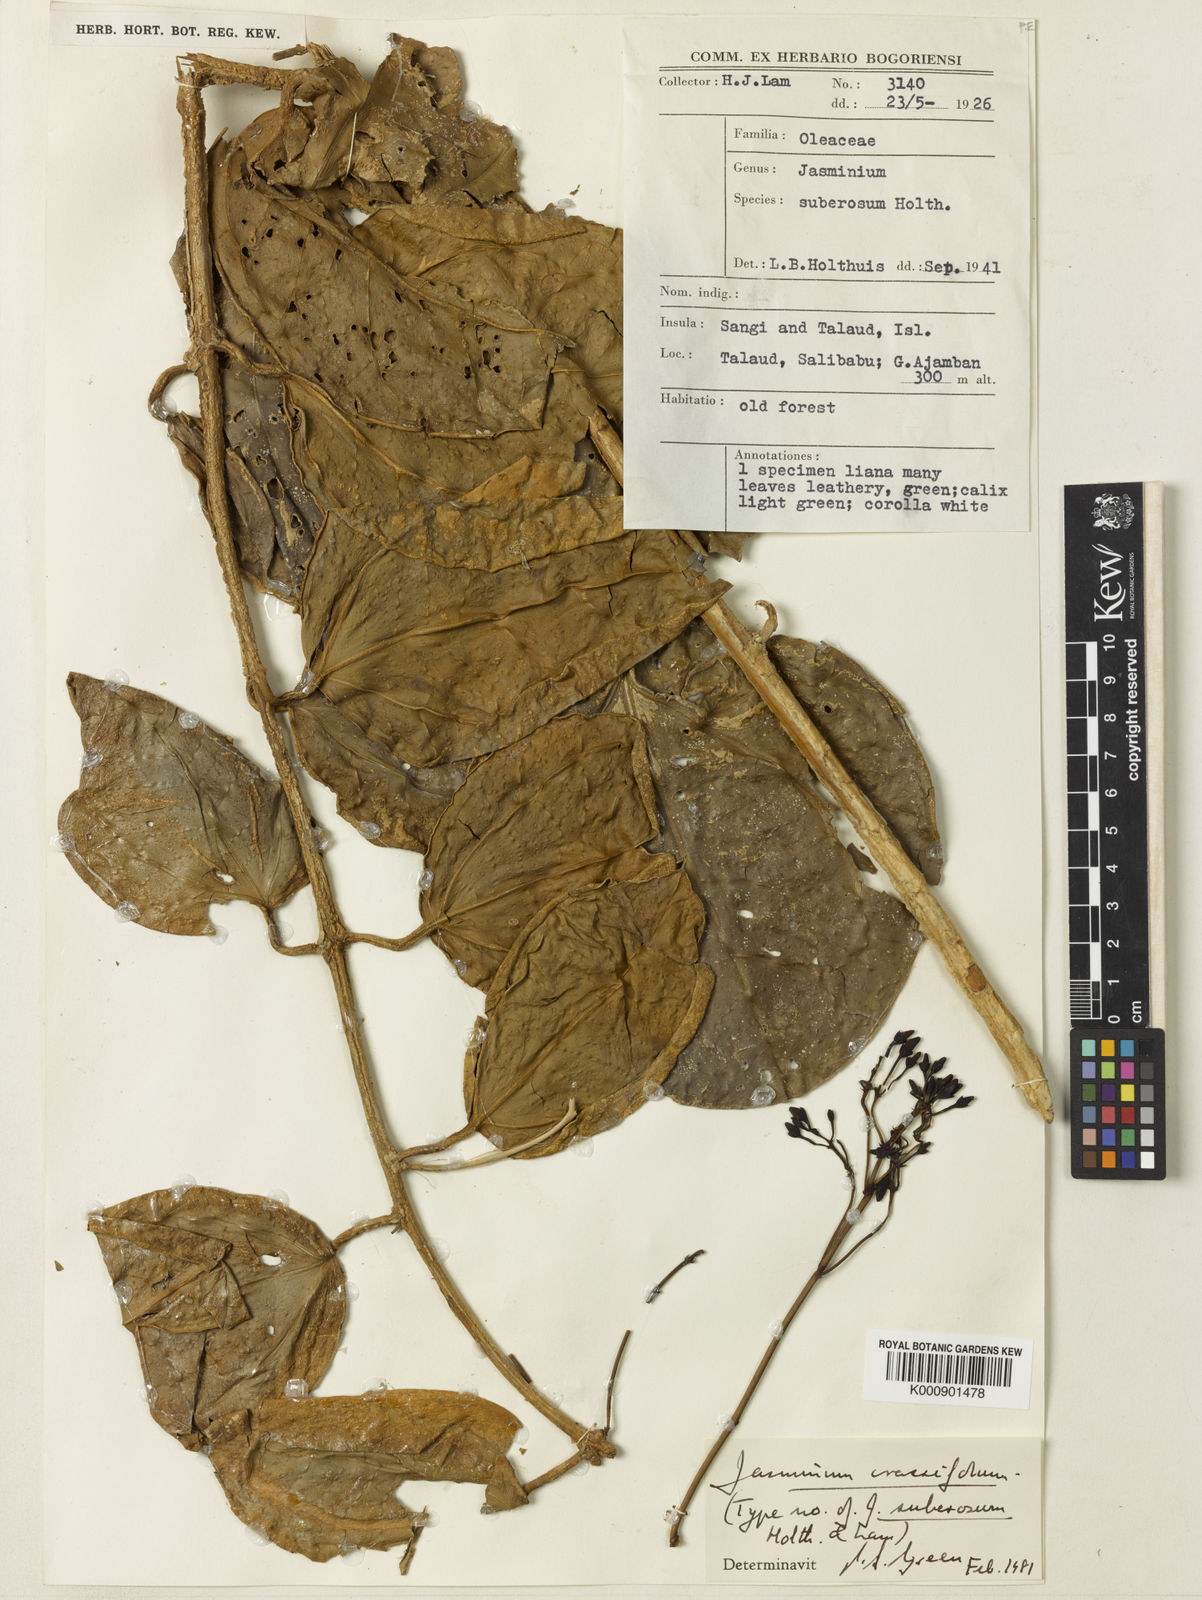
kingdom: Plantae
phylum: Tracheophyta
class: Magnoliopsida
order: Lamiales
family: Oleaceae
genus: Jasminum
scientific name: Jasminum crassifolium
